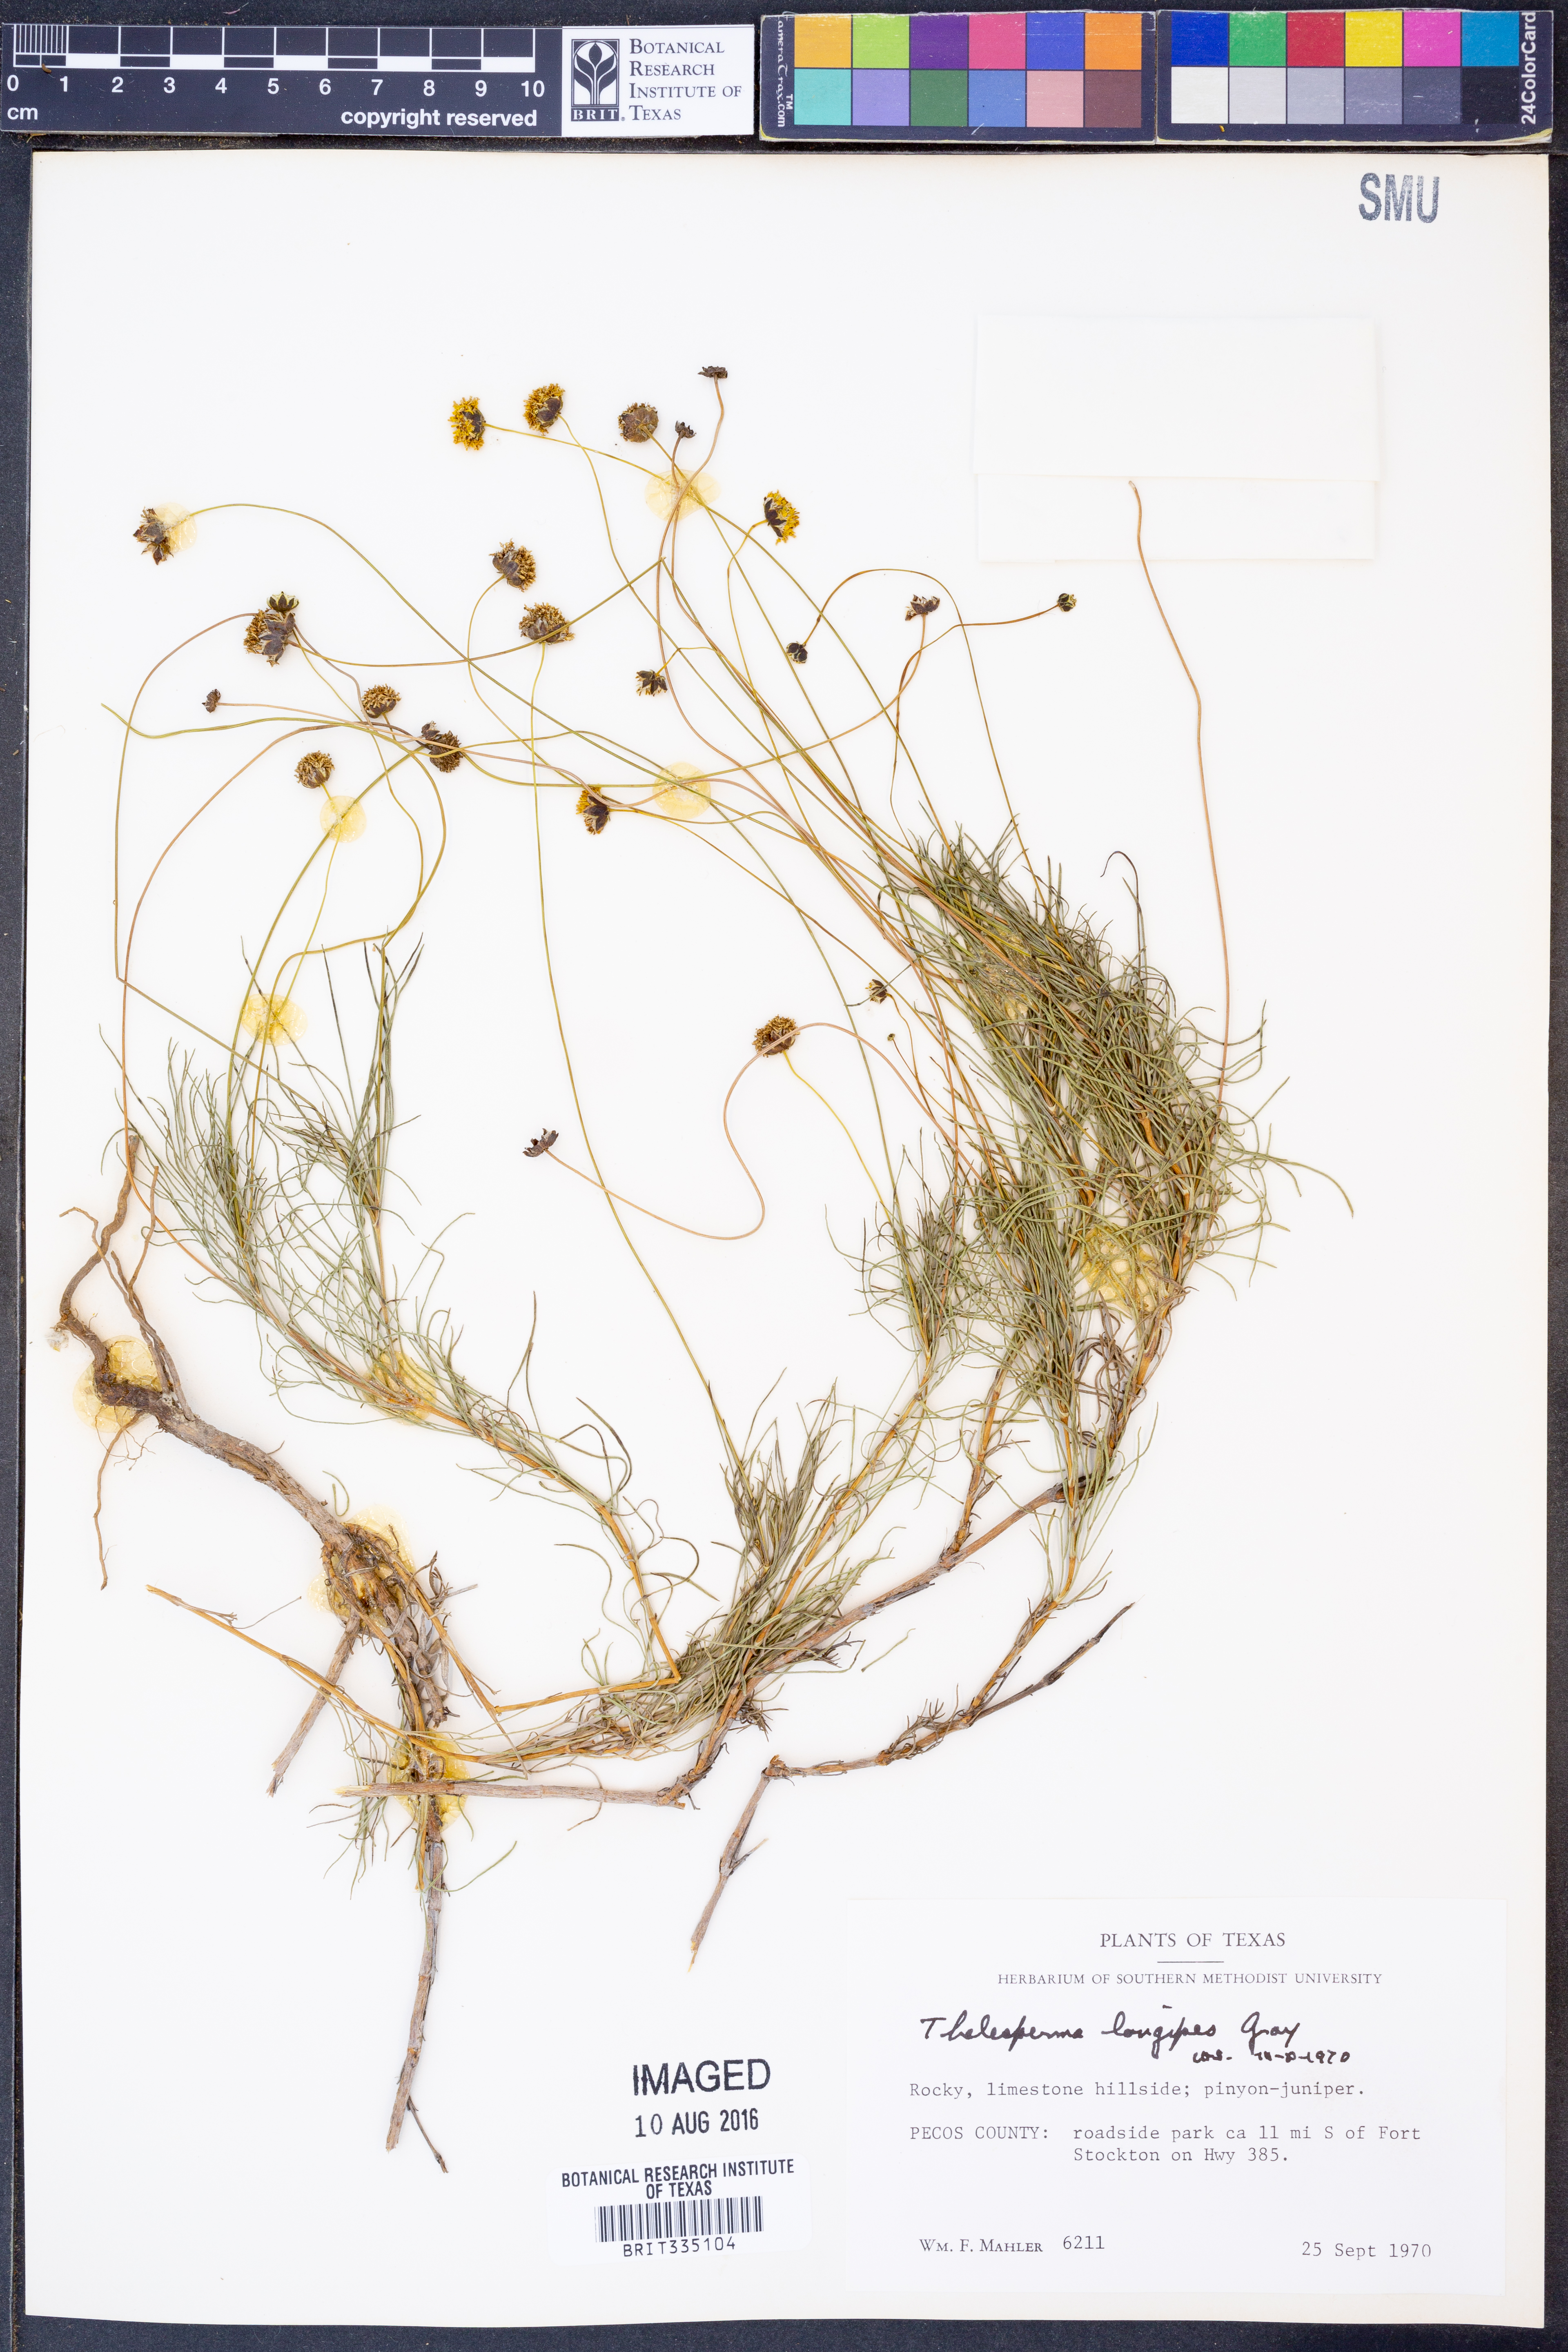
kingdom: Plantae
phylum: Tracheophyta
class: Magnoliopsida
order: Asterales
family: Asteraceae
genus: Thelesperma
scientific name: Thelesperma longipes
